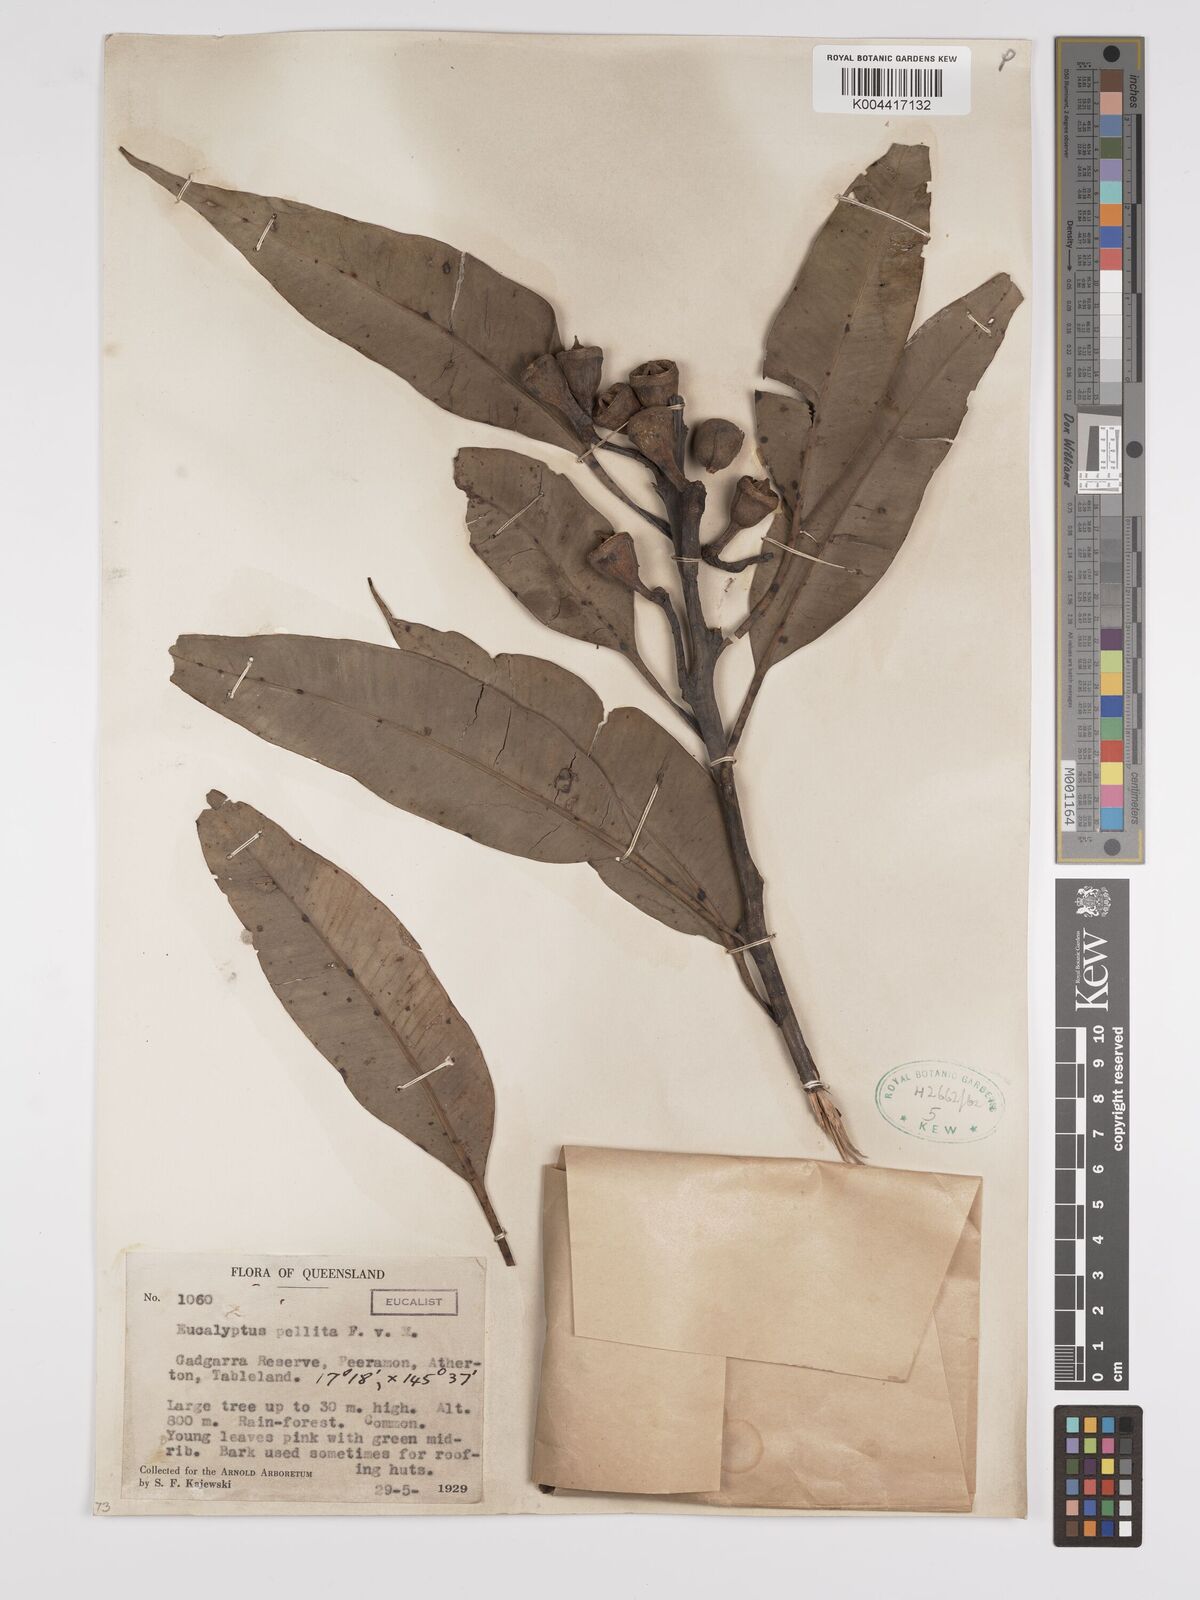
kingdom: Plantae
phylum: Tracheophyta
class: Magnoliopsida
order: Myrtales
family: Myrtaceae
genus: Eucalyptus
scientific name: Eucalyptus pellita
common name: Large-fruited-red-mahogany
